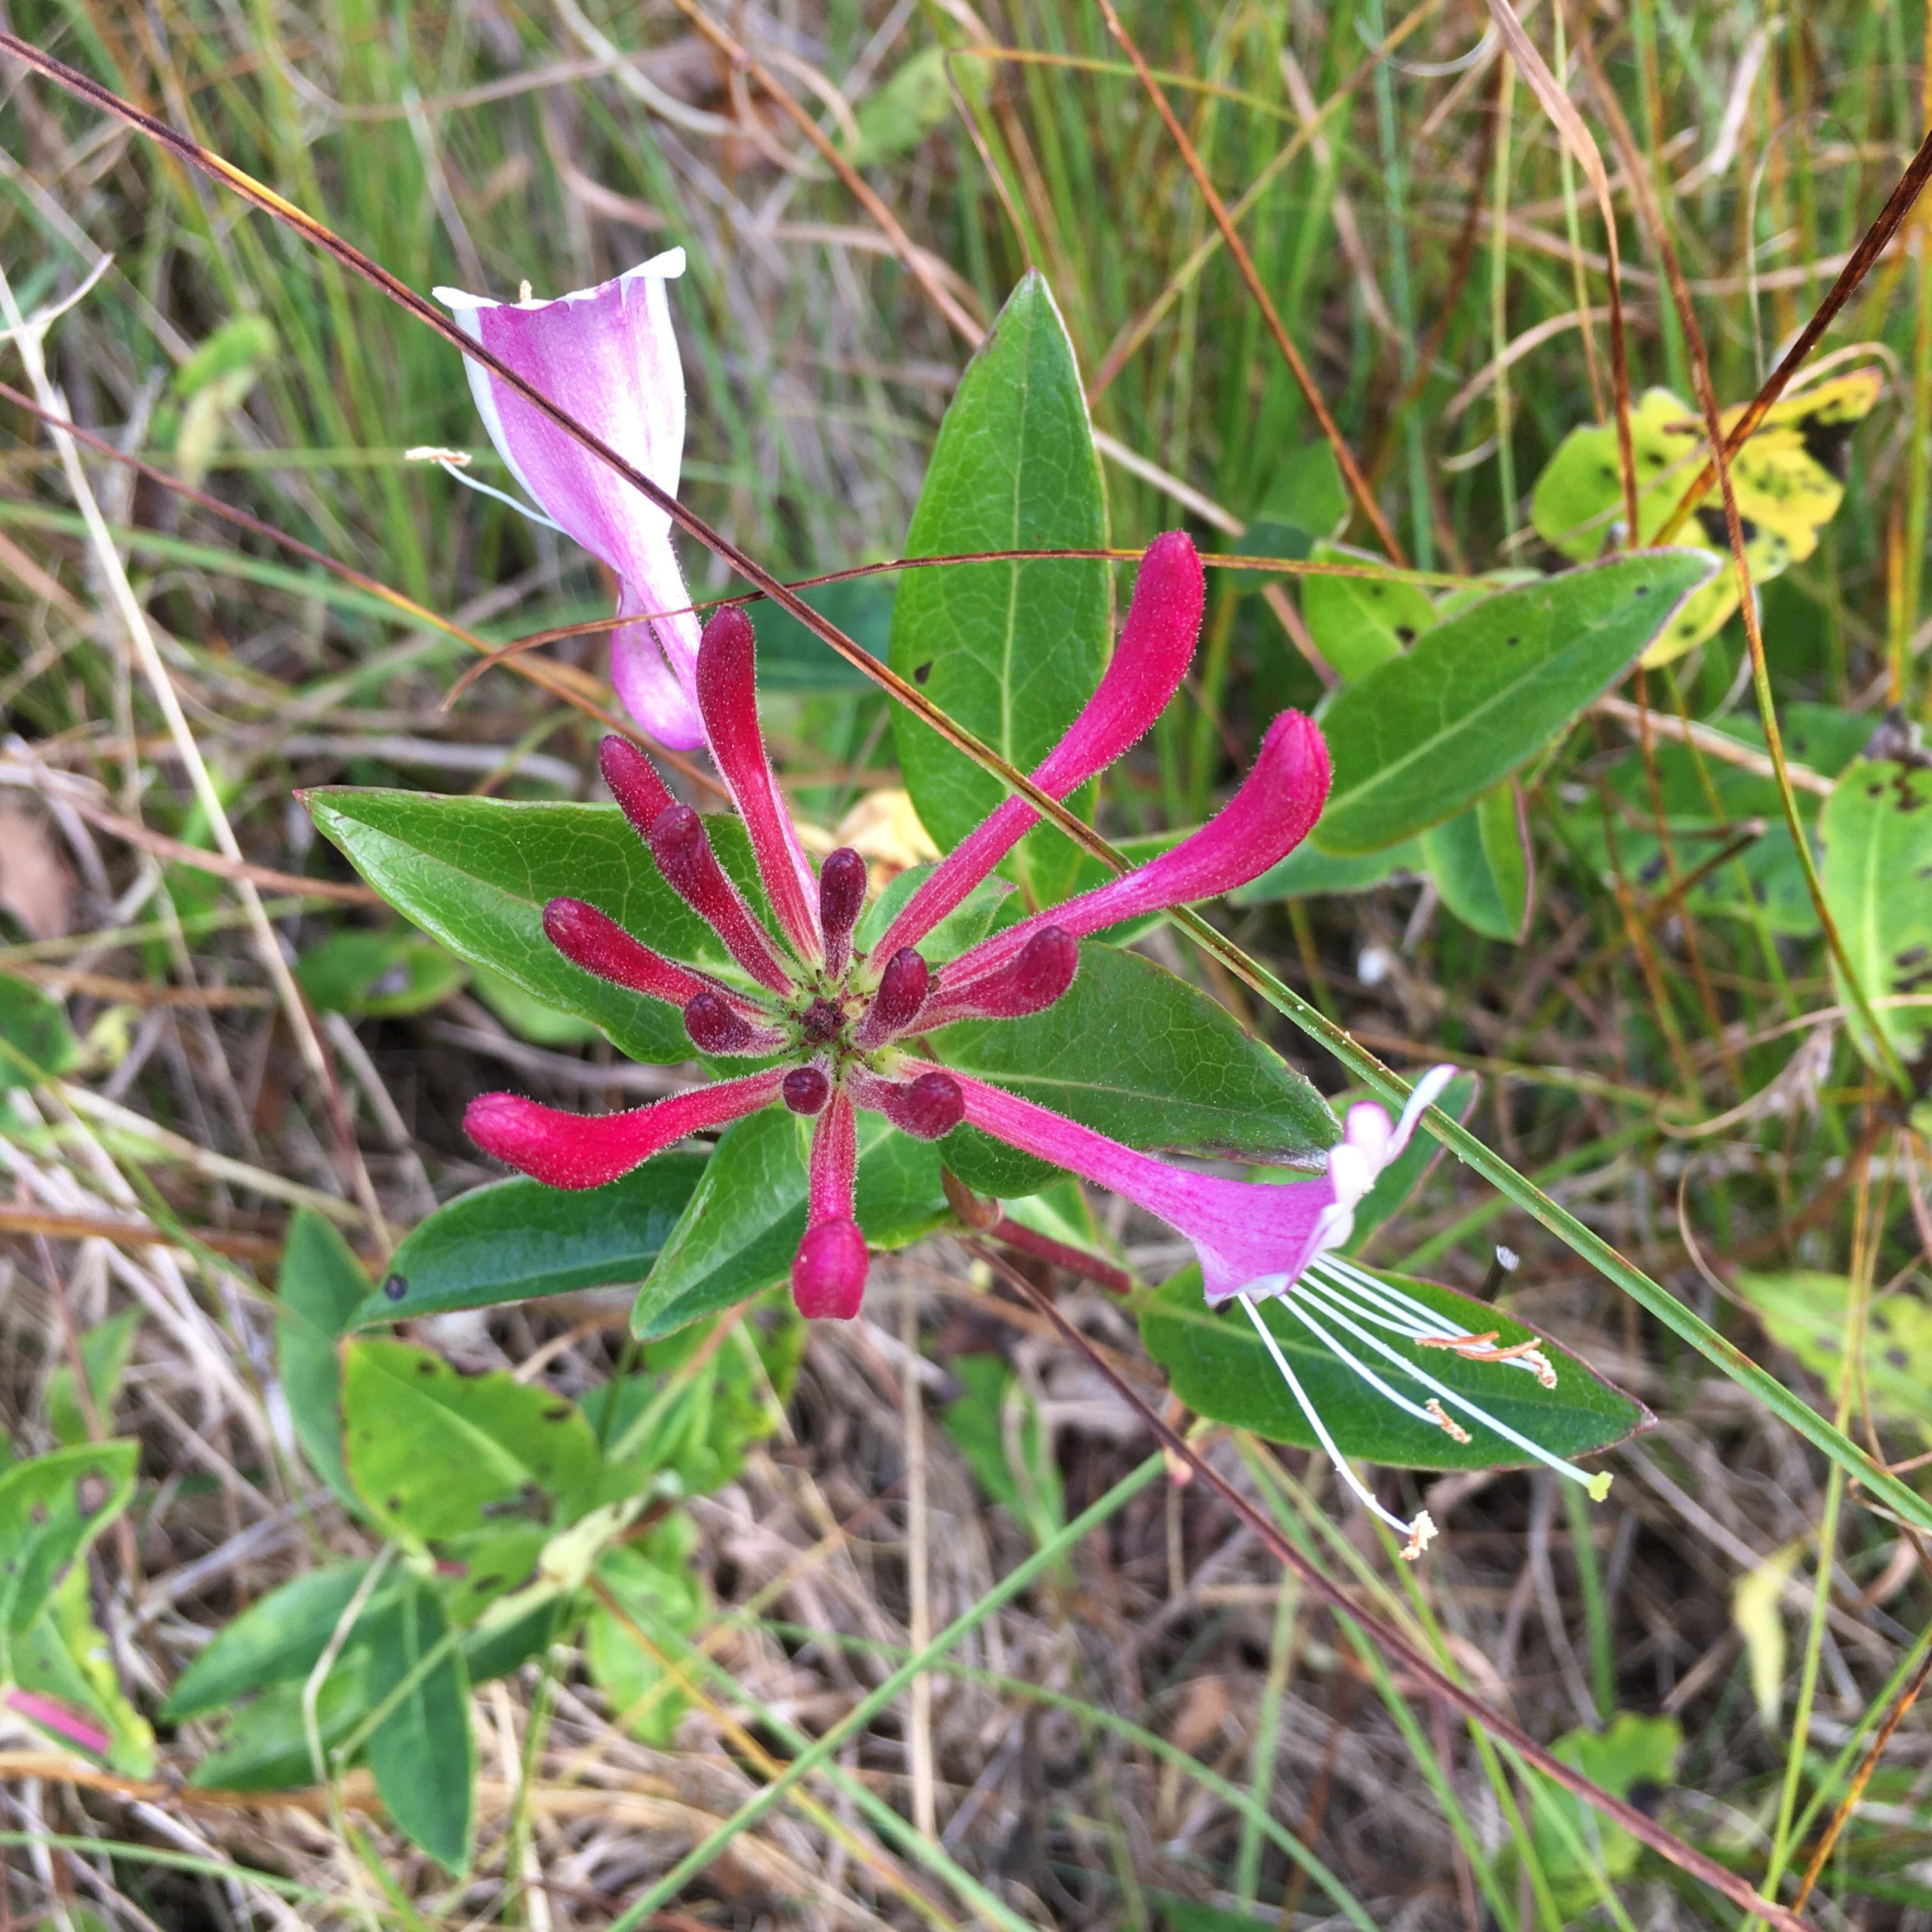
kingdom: Plantae
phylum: Tracheophyta
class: Magnoliopsida
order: Dipsacales
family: Caprifoliaceae
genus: Lonicera
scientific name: Lonicera periclymenum
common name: Almindelig gedeblad
